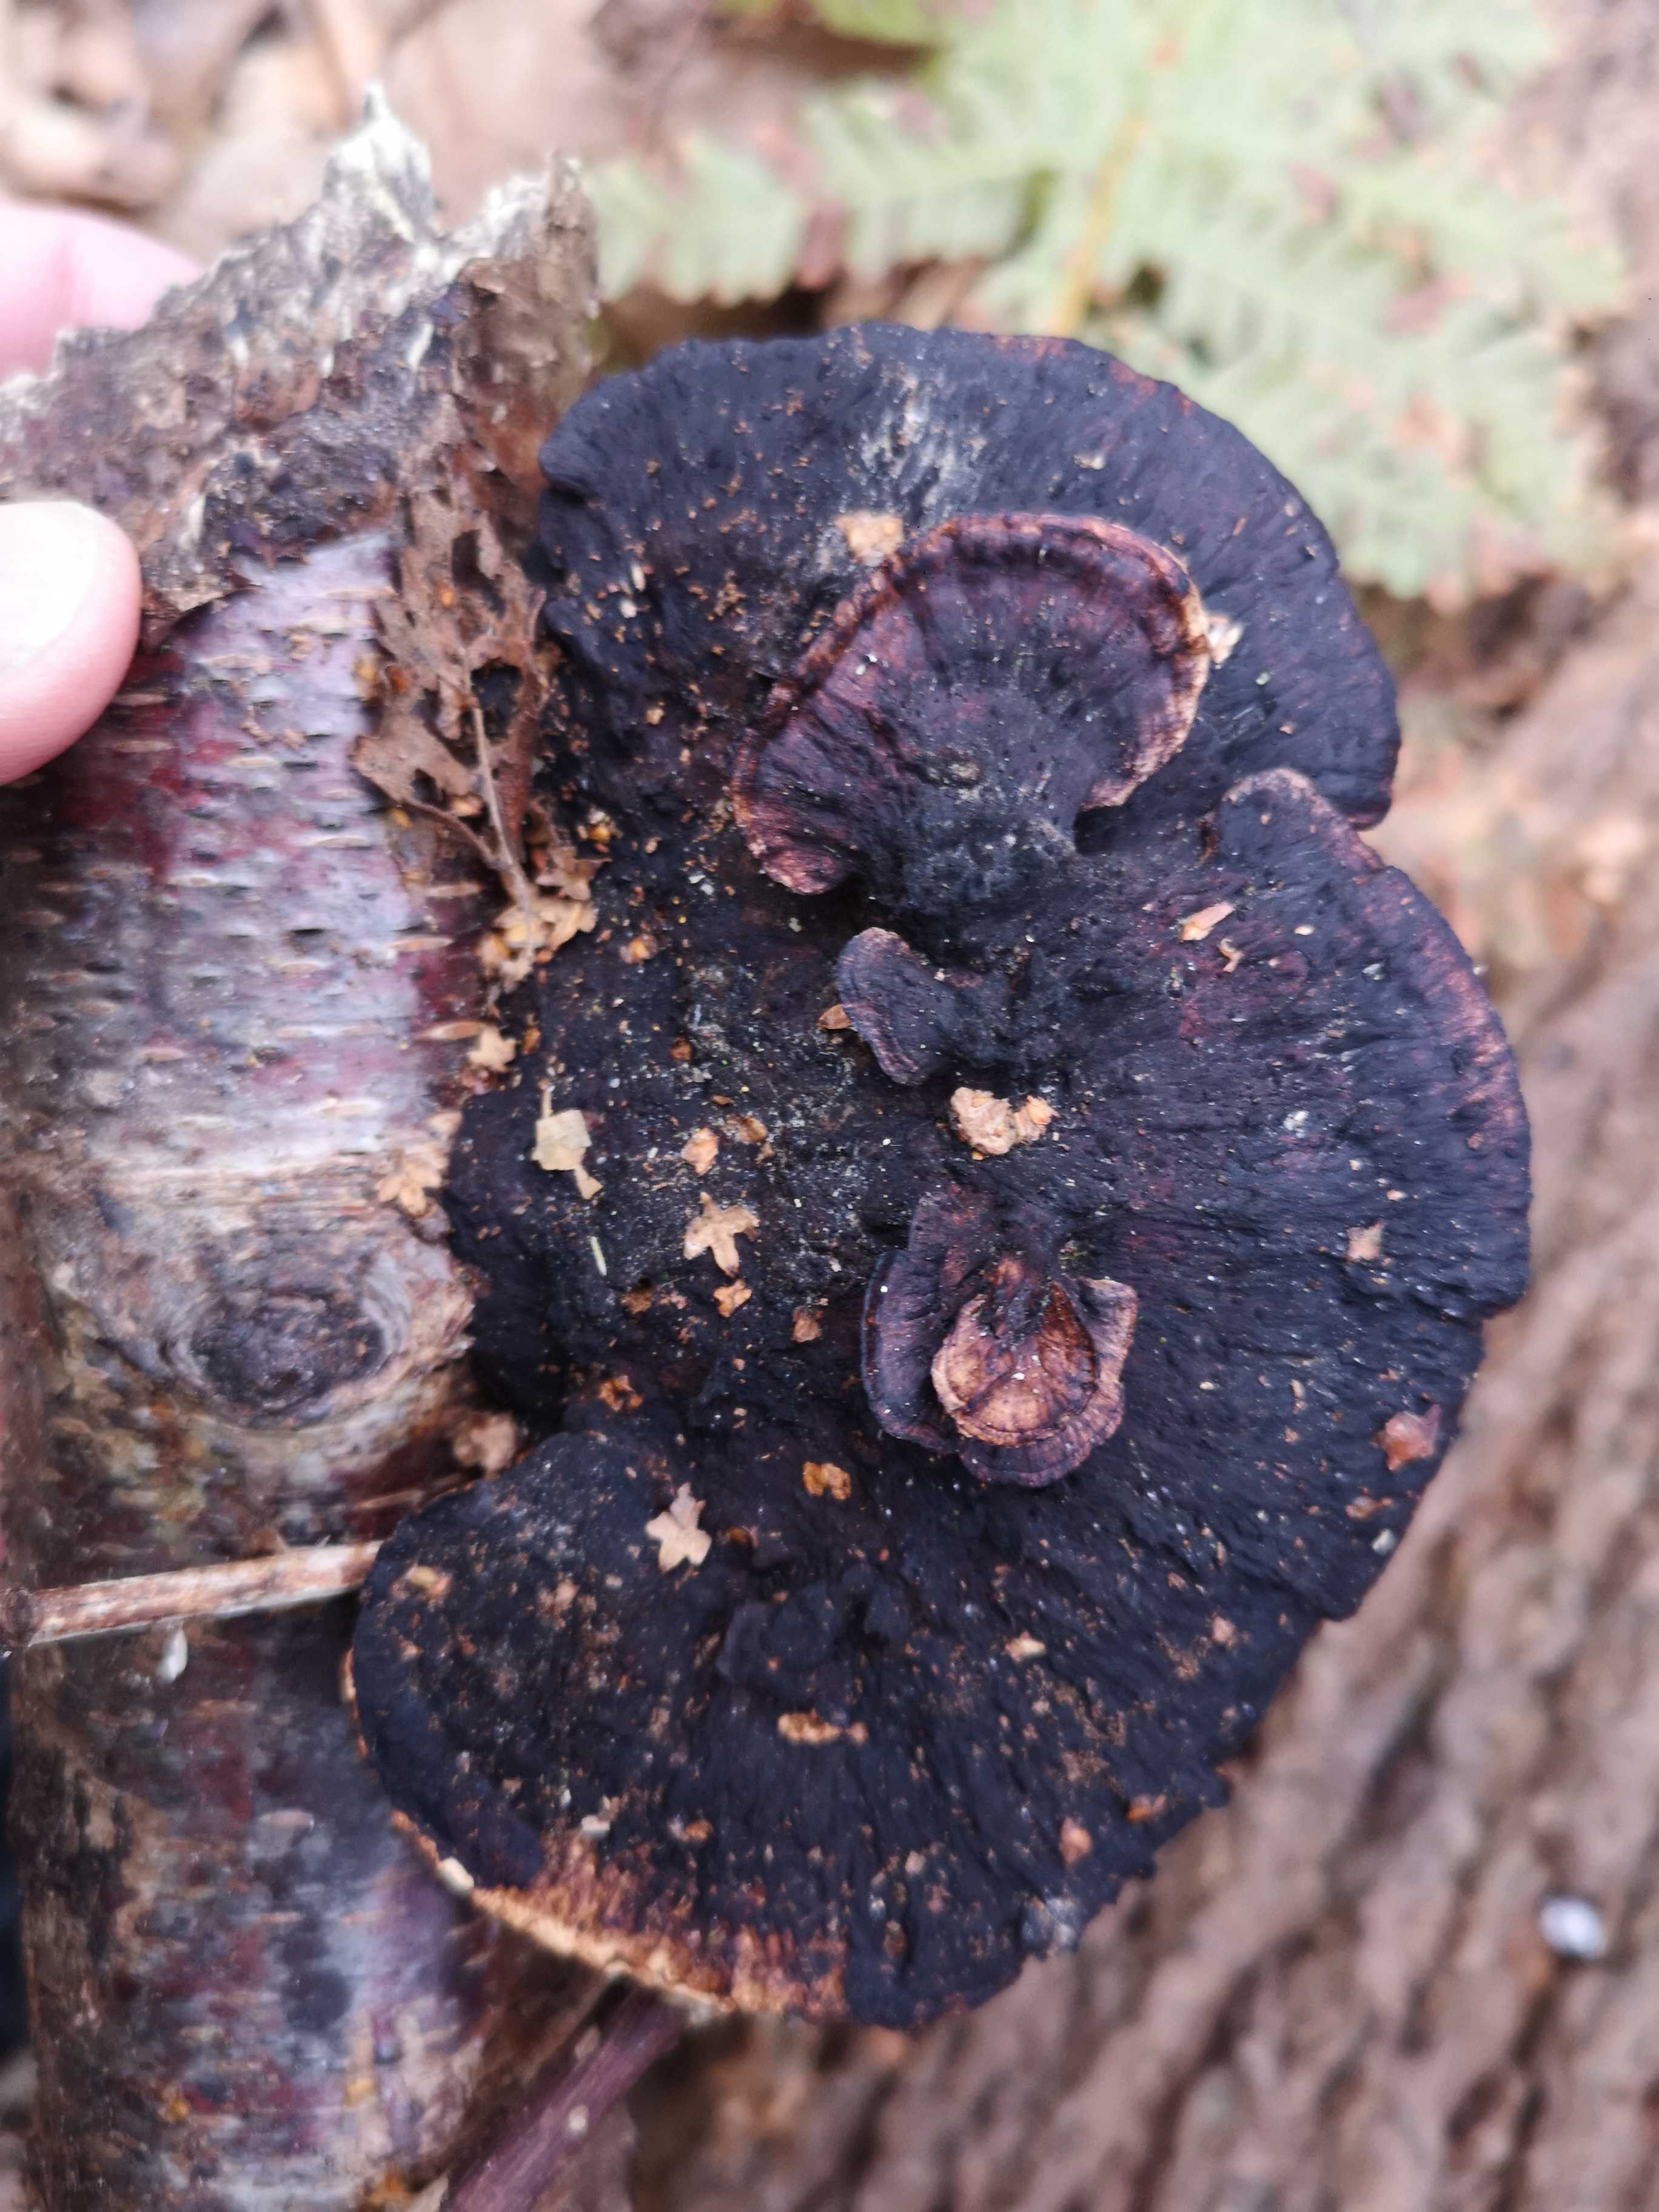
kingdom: Fungi
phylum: Basidiomycota
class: Agaricomycetes
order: Polyporales
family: Polyporaceae
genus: Daedaleopsis
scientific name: Daedaleopsis confragosa
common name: rødmende læderporesvamp
